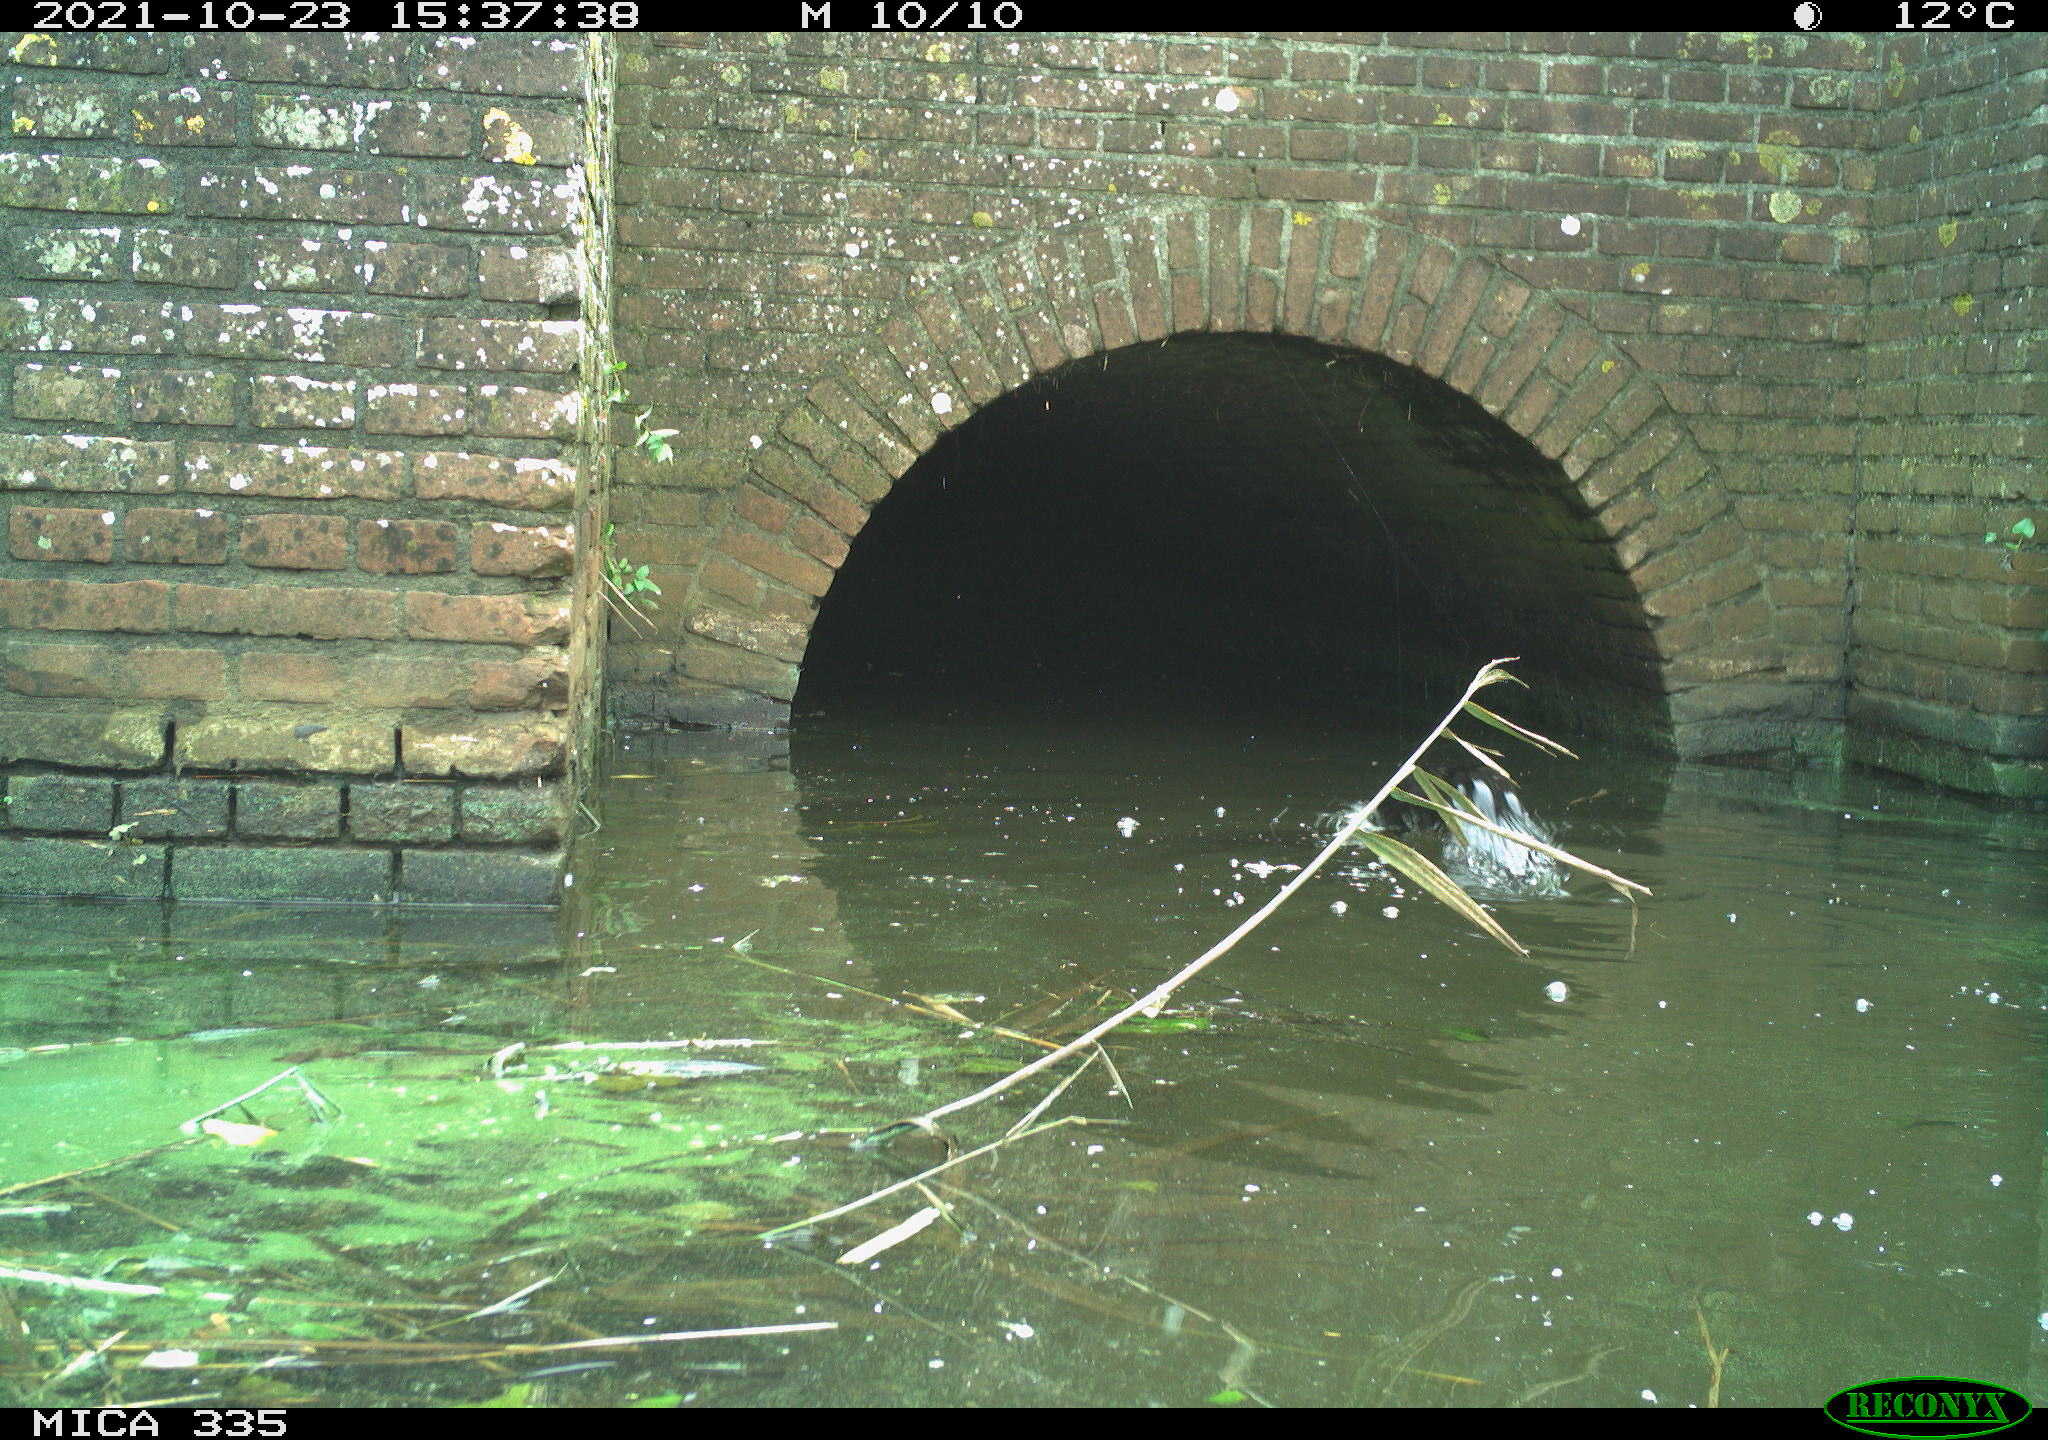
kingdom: Animalia
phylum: Chordata
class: Aves
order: Suliformes
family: Phalacrocoracidae
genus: Phalacrocorax
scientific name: Phalacrocorax carbo
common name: Great cormorant
